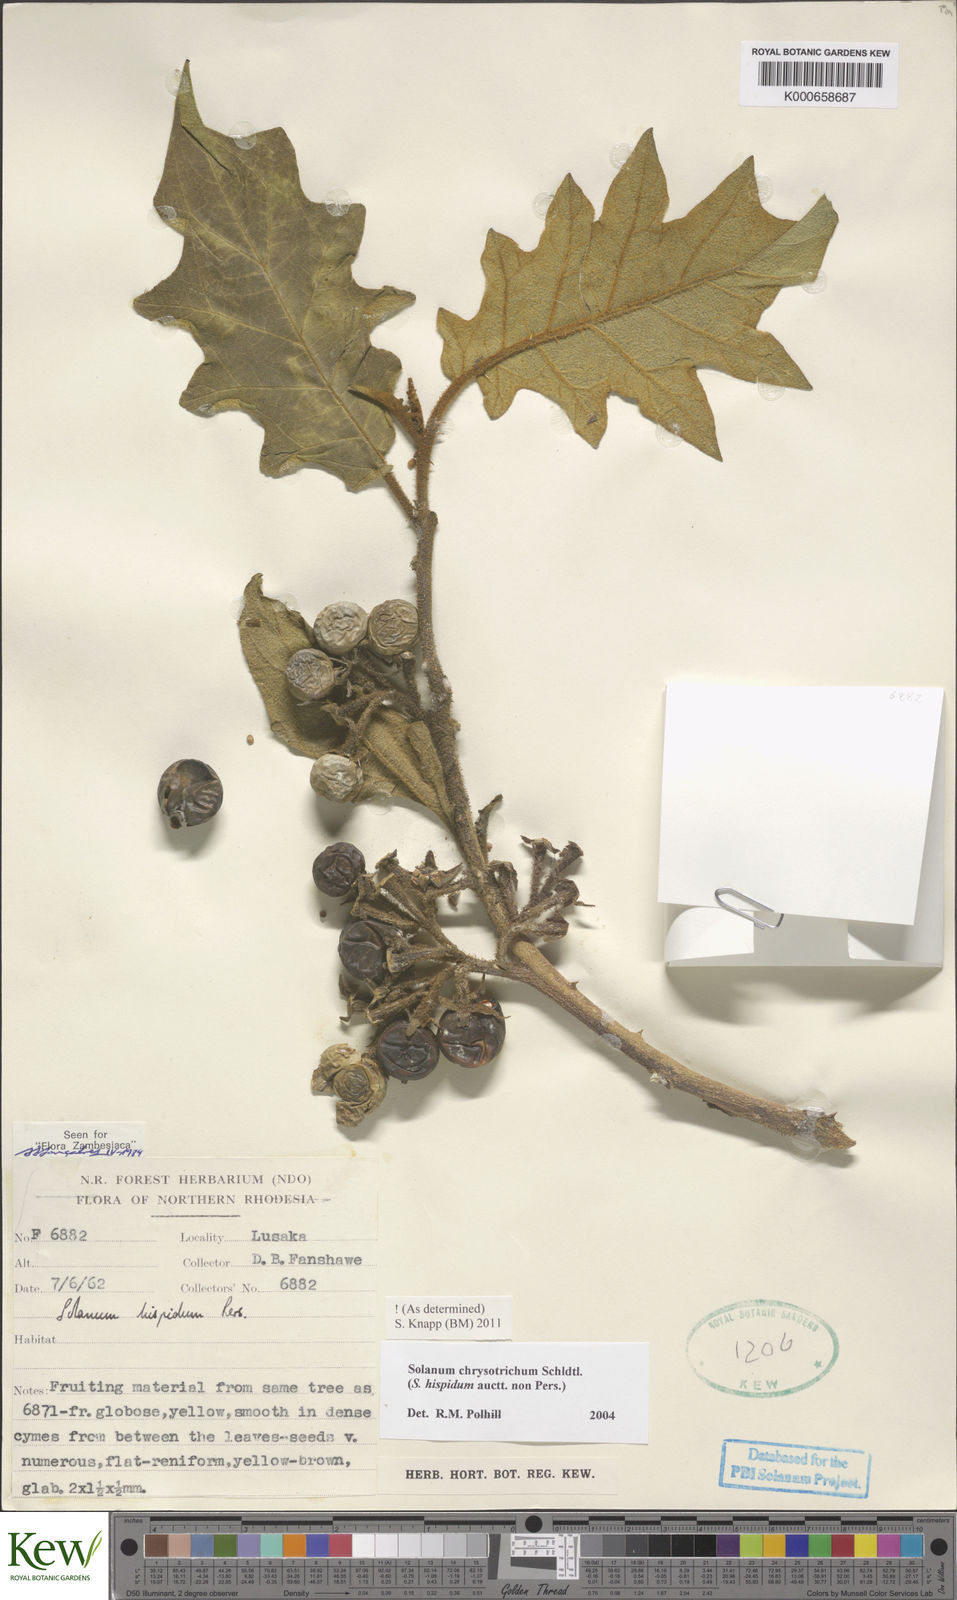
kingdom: Plantae
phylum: Tracheophyta
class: Magnoliopsida
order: Solanales
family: Solanaceae
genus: Solanum
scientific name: Solanum chrysotrichum
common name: Nightshade
